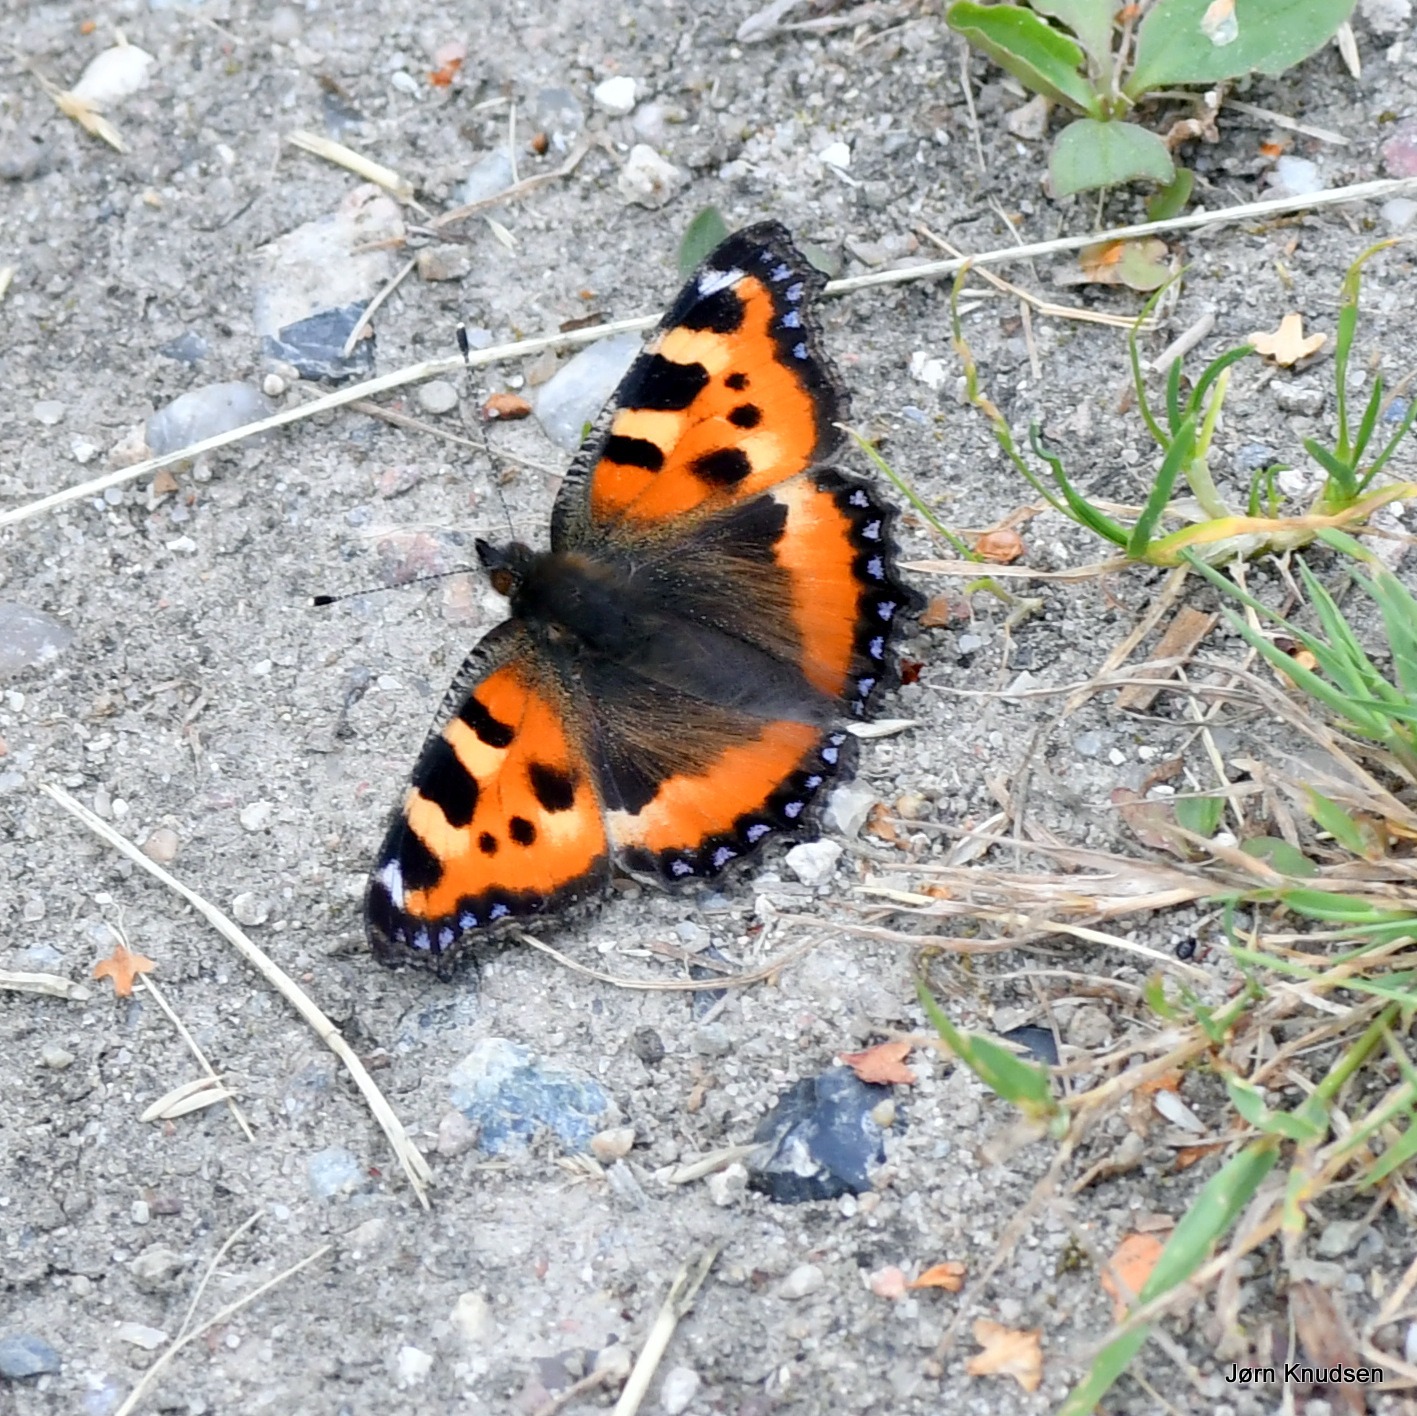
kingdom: Animalia
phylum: Arthropoda
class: Insecta
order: Lepidoptera
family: Nymphalidae
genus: Aglais
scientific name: Aglais urticae
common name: Nældens takvinge
